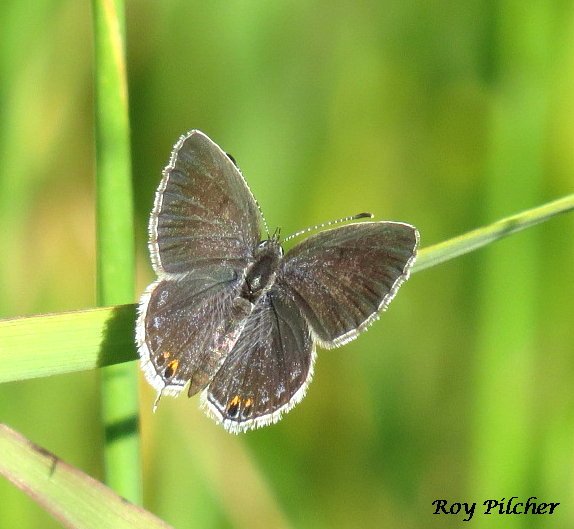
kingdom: Animalia
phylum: Arthropoda
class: Insecta
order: Lepidoptera
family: Lycaenidae
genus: Elkalyce
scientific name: Elkalyce comyntas
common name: Eastern Tailed-Blue
